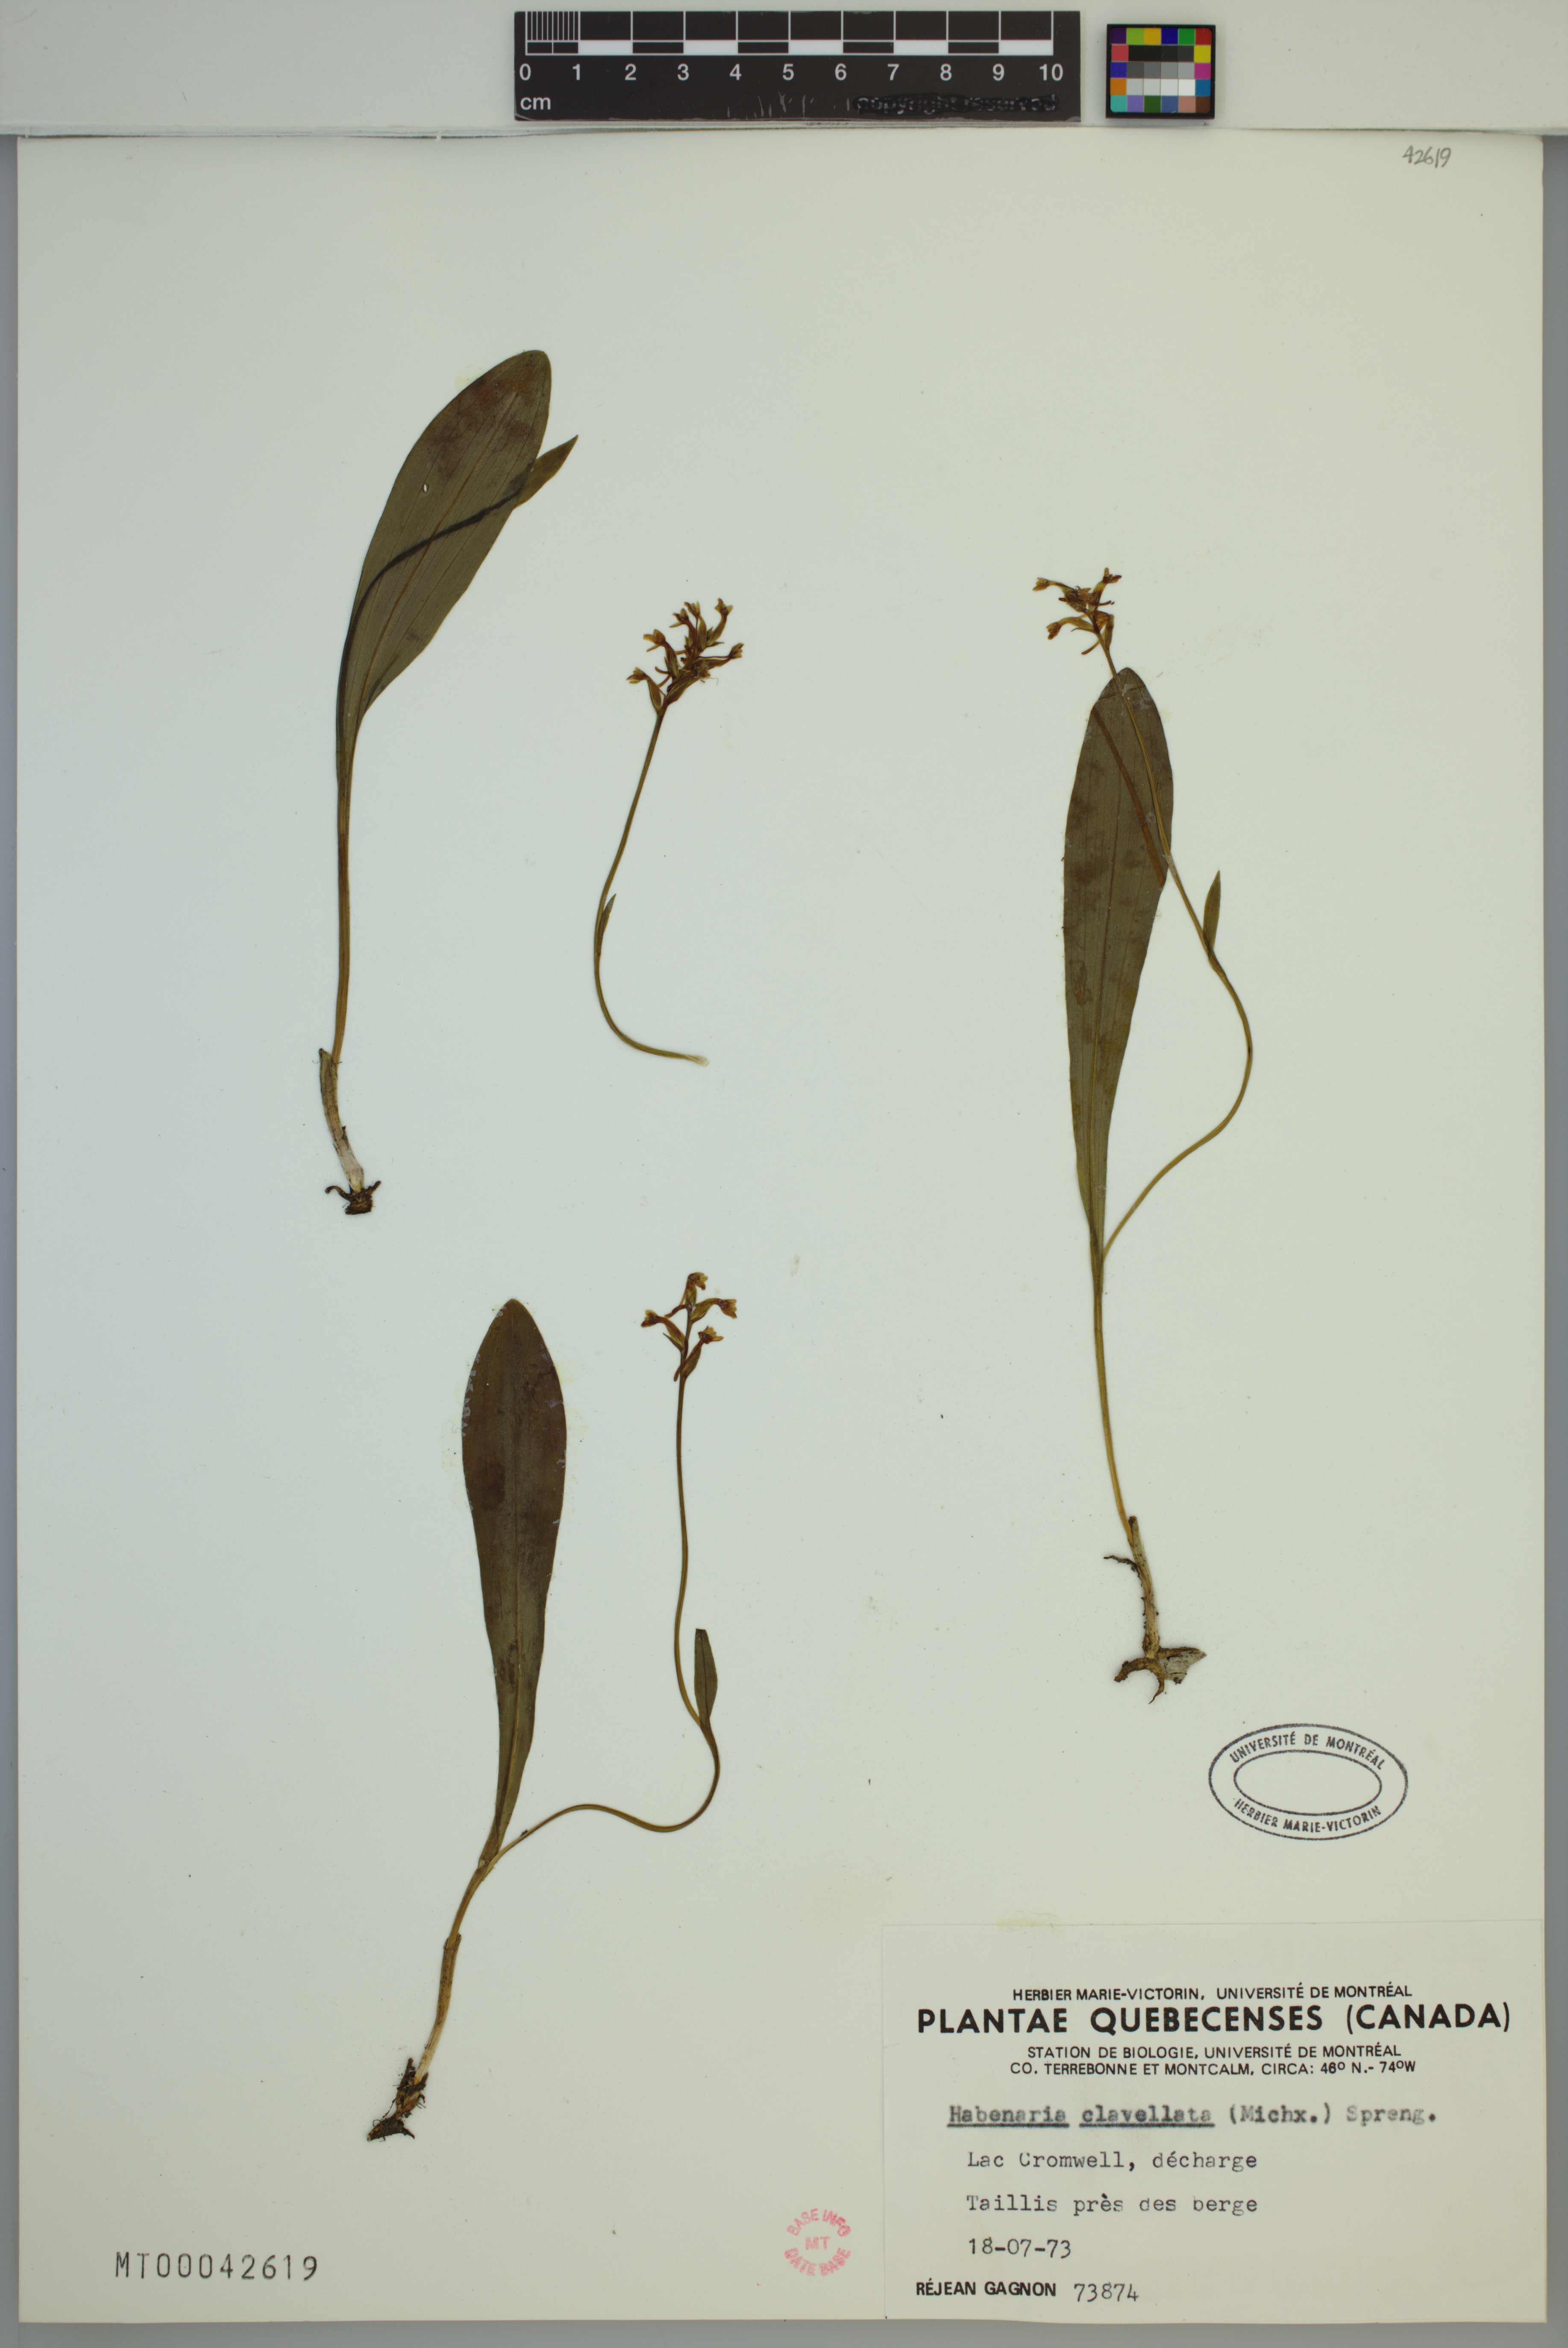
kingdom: Plantae
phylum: Tracheophyta
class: Liliopsida
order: Asparagales
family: Orchidaceae
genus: Platanthera
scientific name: Platanthera clavellata
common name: Club-spur orchid
